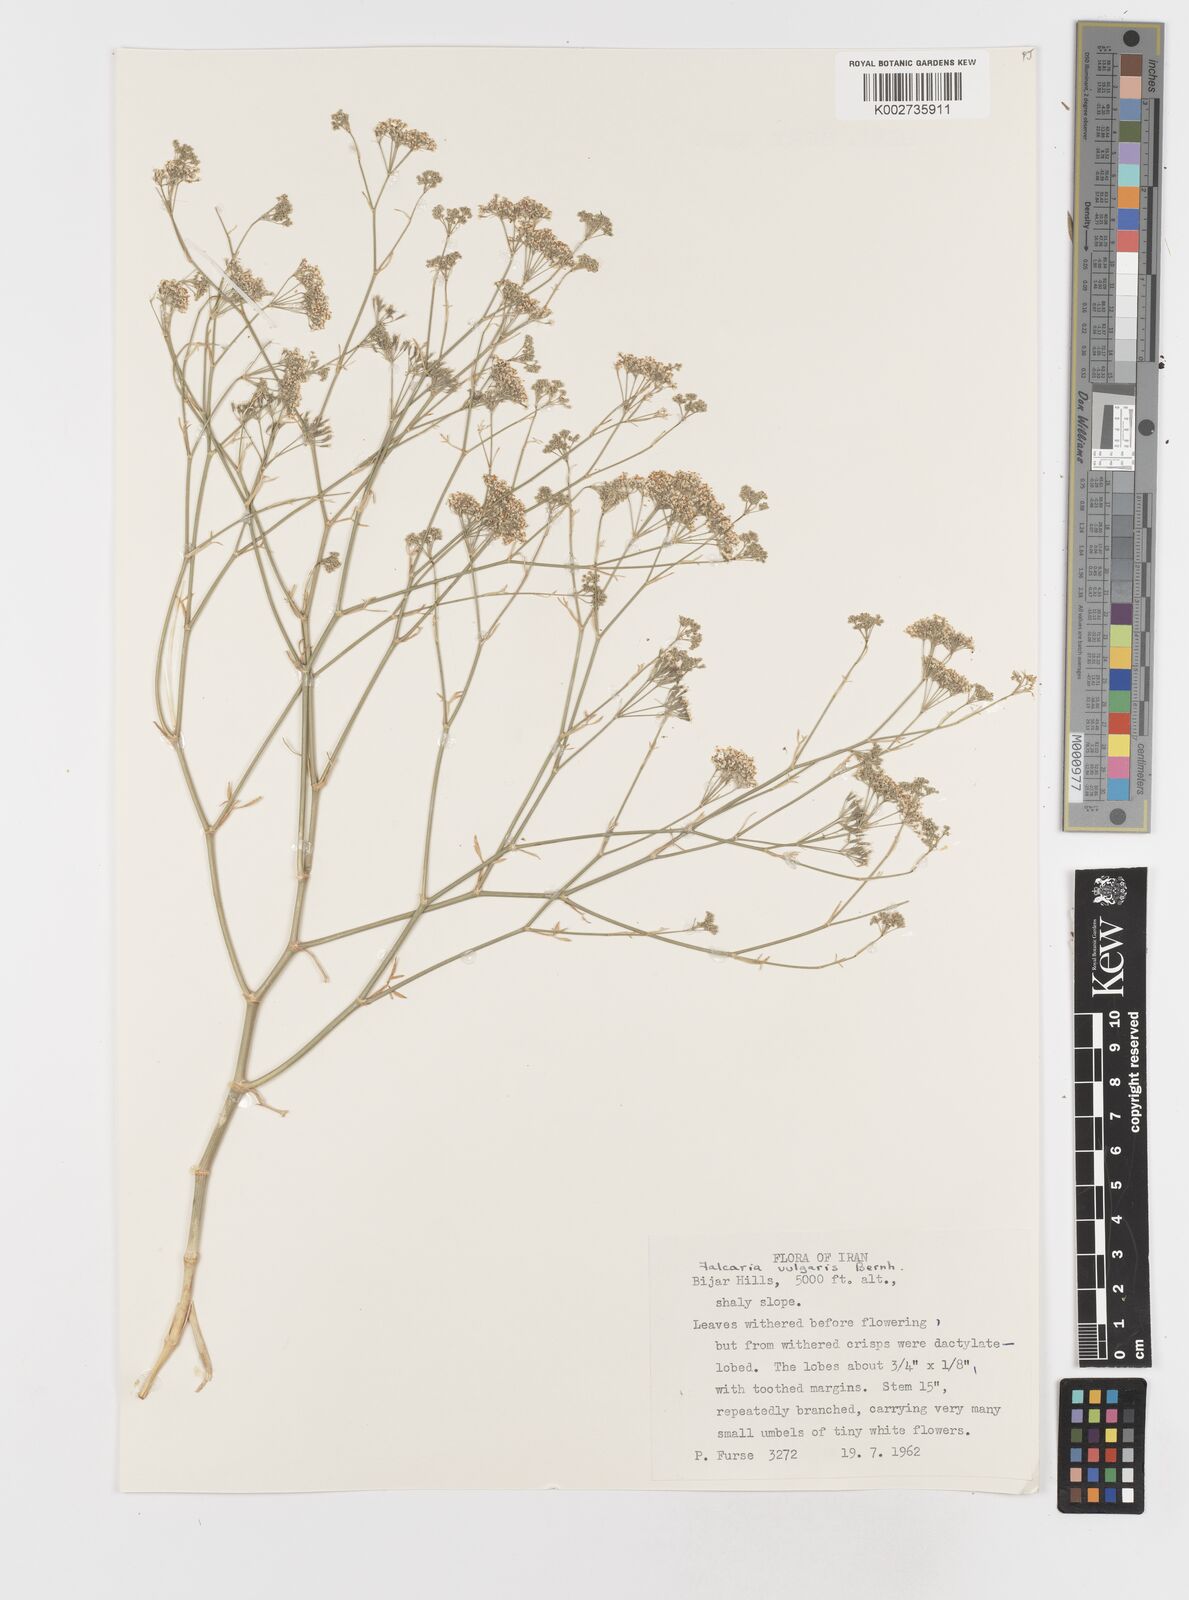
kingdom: Plantae
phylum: Tracheophyta
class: Magnoliopsida
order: Apiales
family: Apiaceae
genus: Falcaria
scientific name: Falcaria vulgaris
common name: Longleaf
